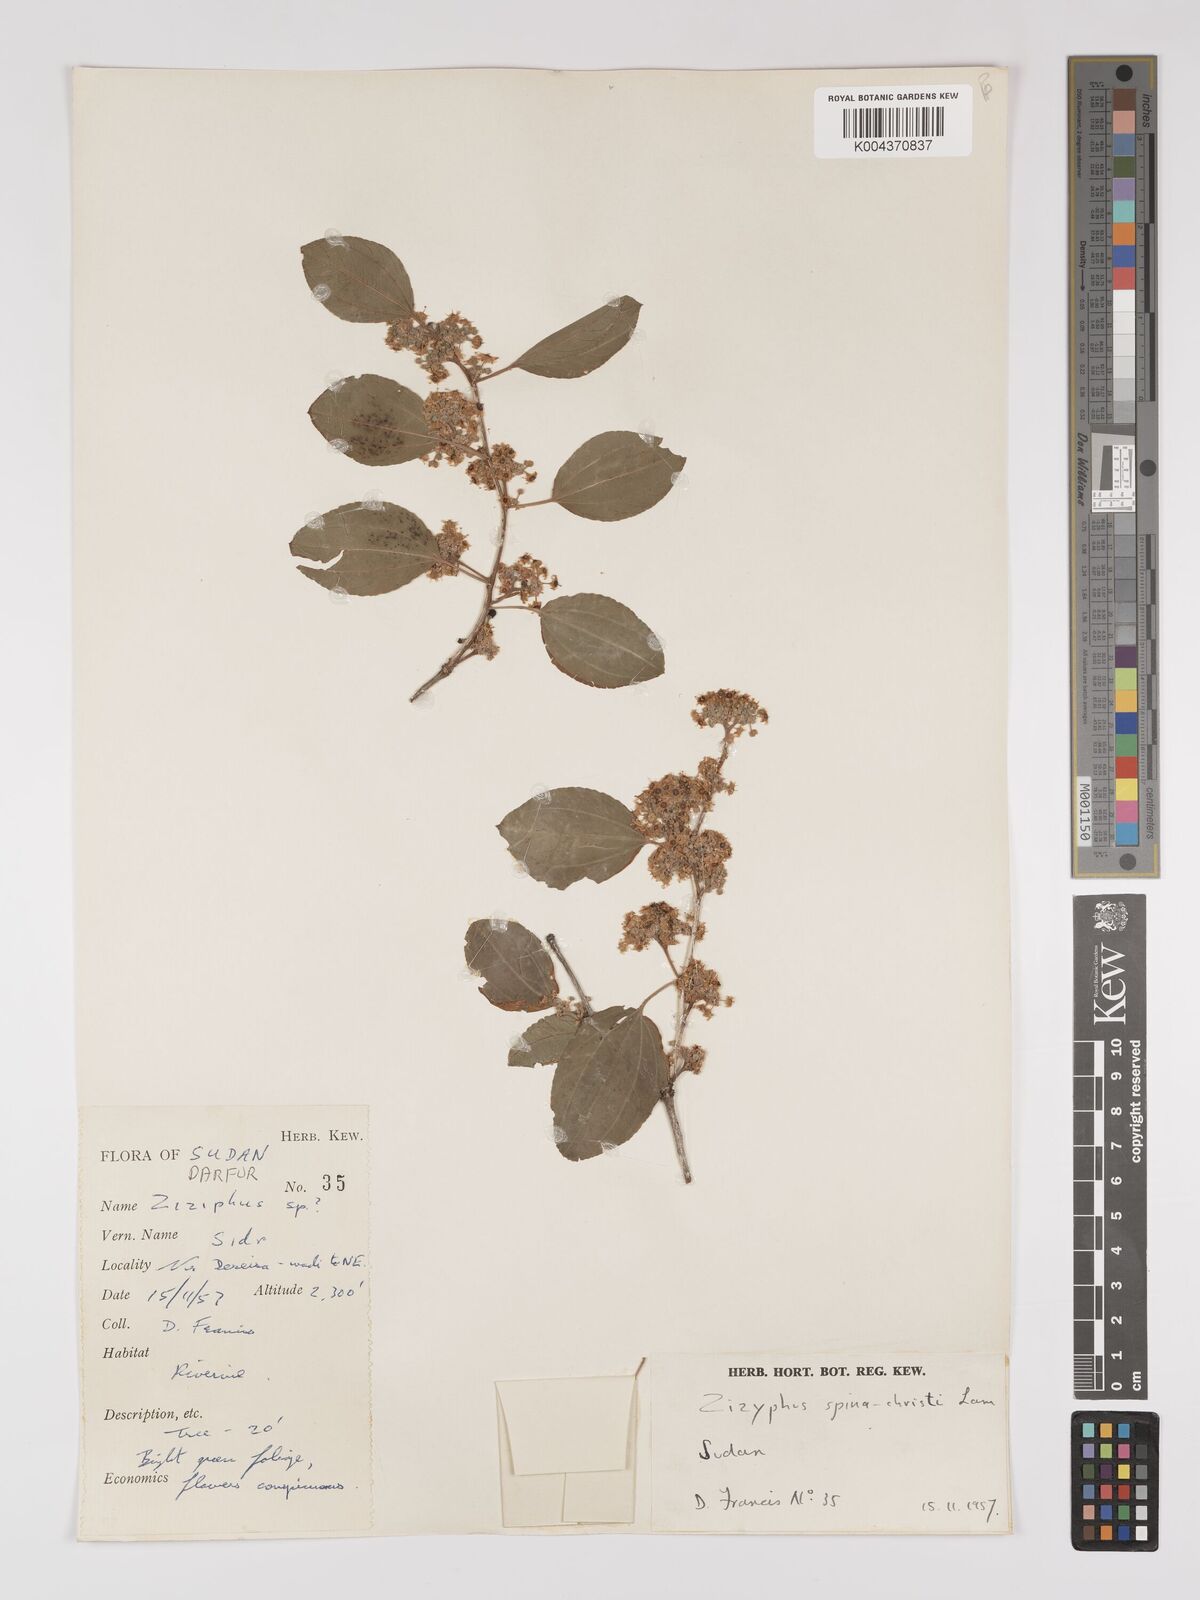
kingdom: Plantae
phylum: Tracheophyta
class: Magnoliopsida
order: Rosales
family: Rhamnaceae
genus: Ziziphus
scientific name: Ziziphus spina-christi
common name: Syrian christ-thorn
